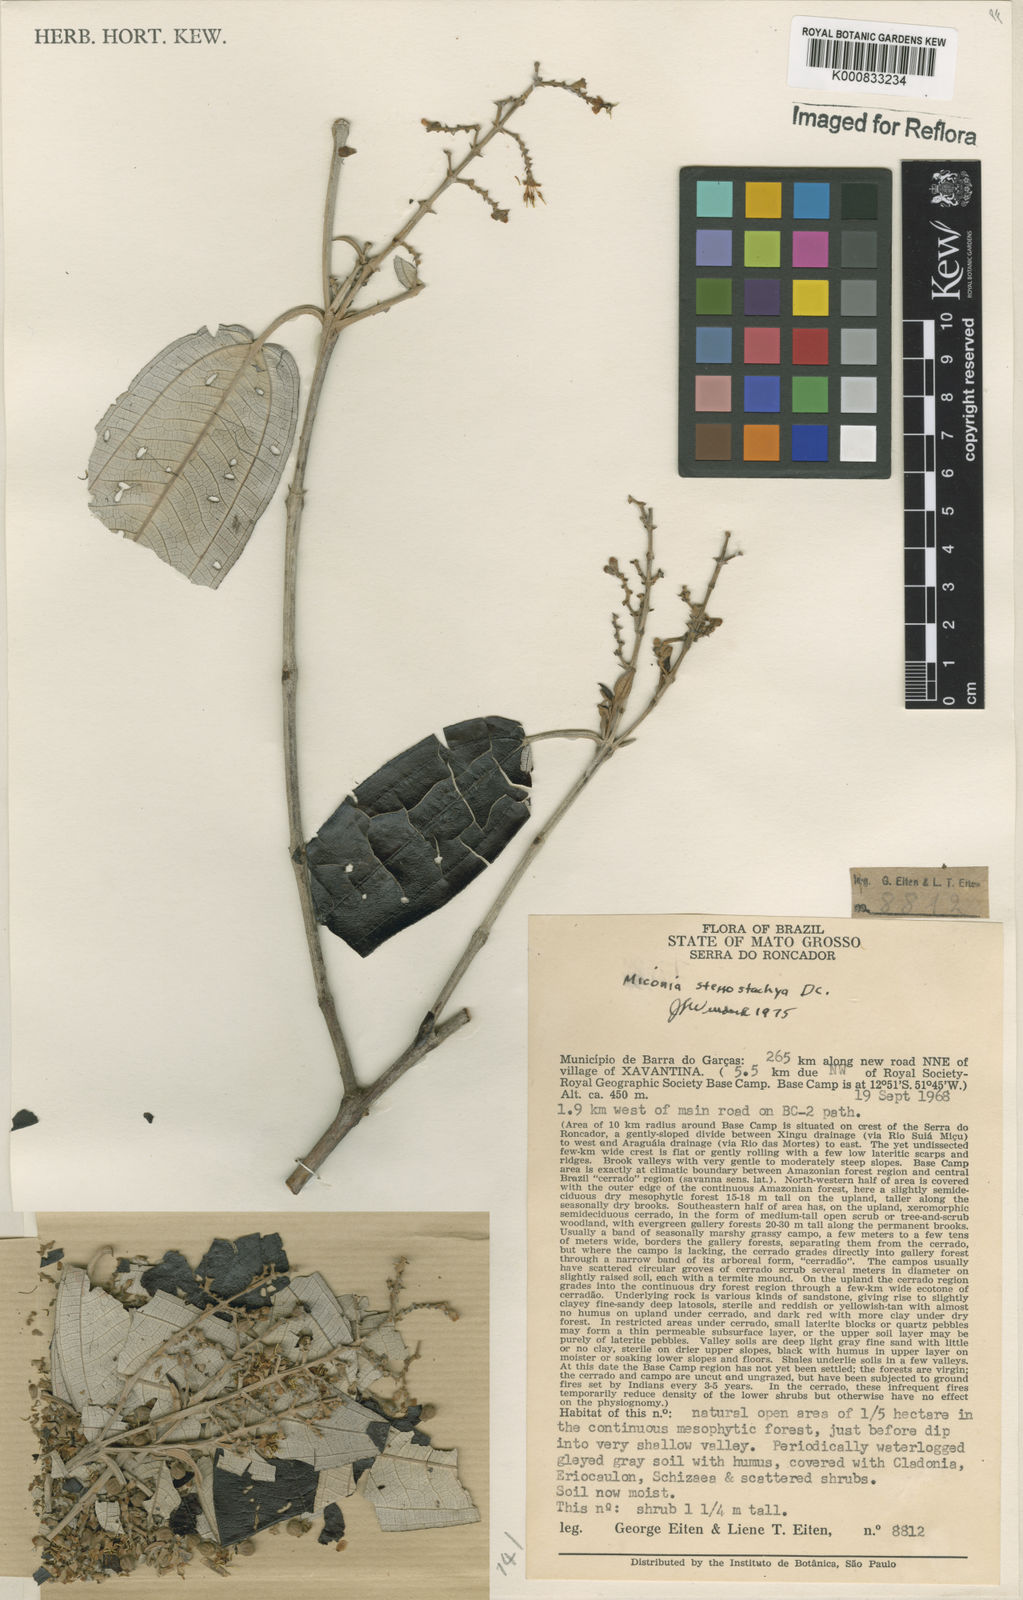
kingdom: Plantae
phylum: Tracheophyta
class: Magnoliopsida
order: Myrtales
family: Melastomataceae
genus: Miconia
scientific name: Miconia stenostachya
